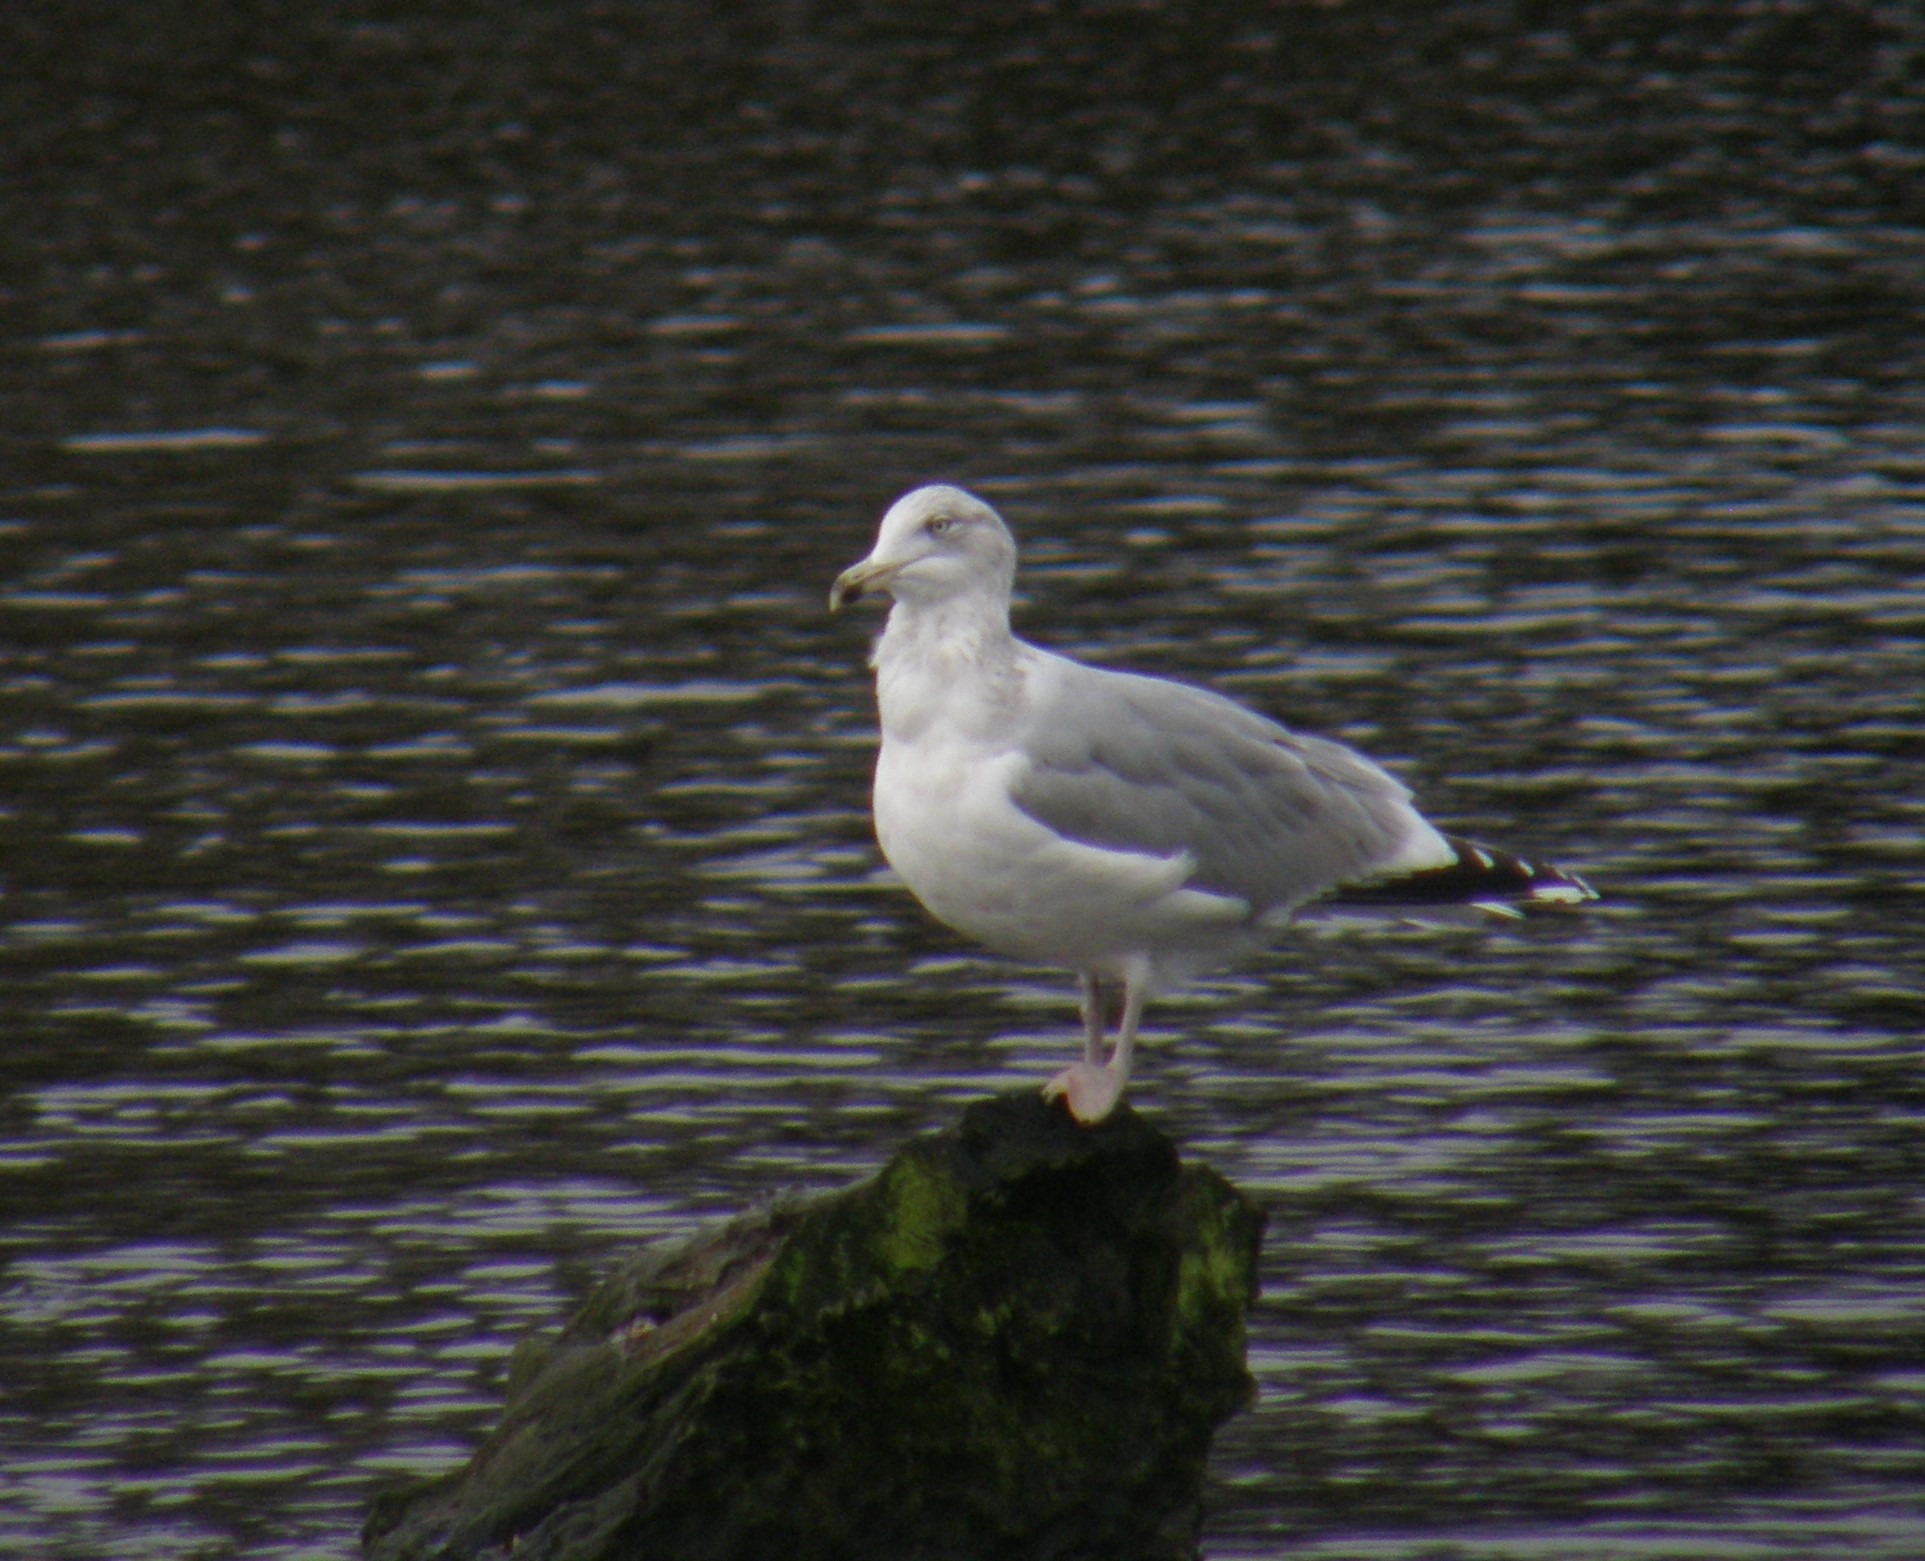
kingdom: Animalia
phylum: Chordata
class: Aves
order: Charadriiformes
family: Laridae
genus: Larus
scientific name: Larus argentatus
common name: Sølvmåge
